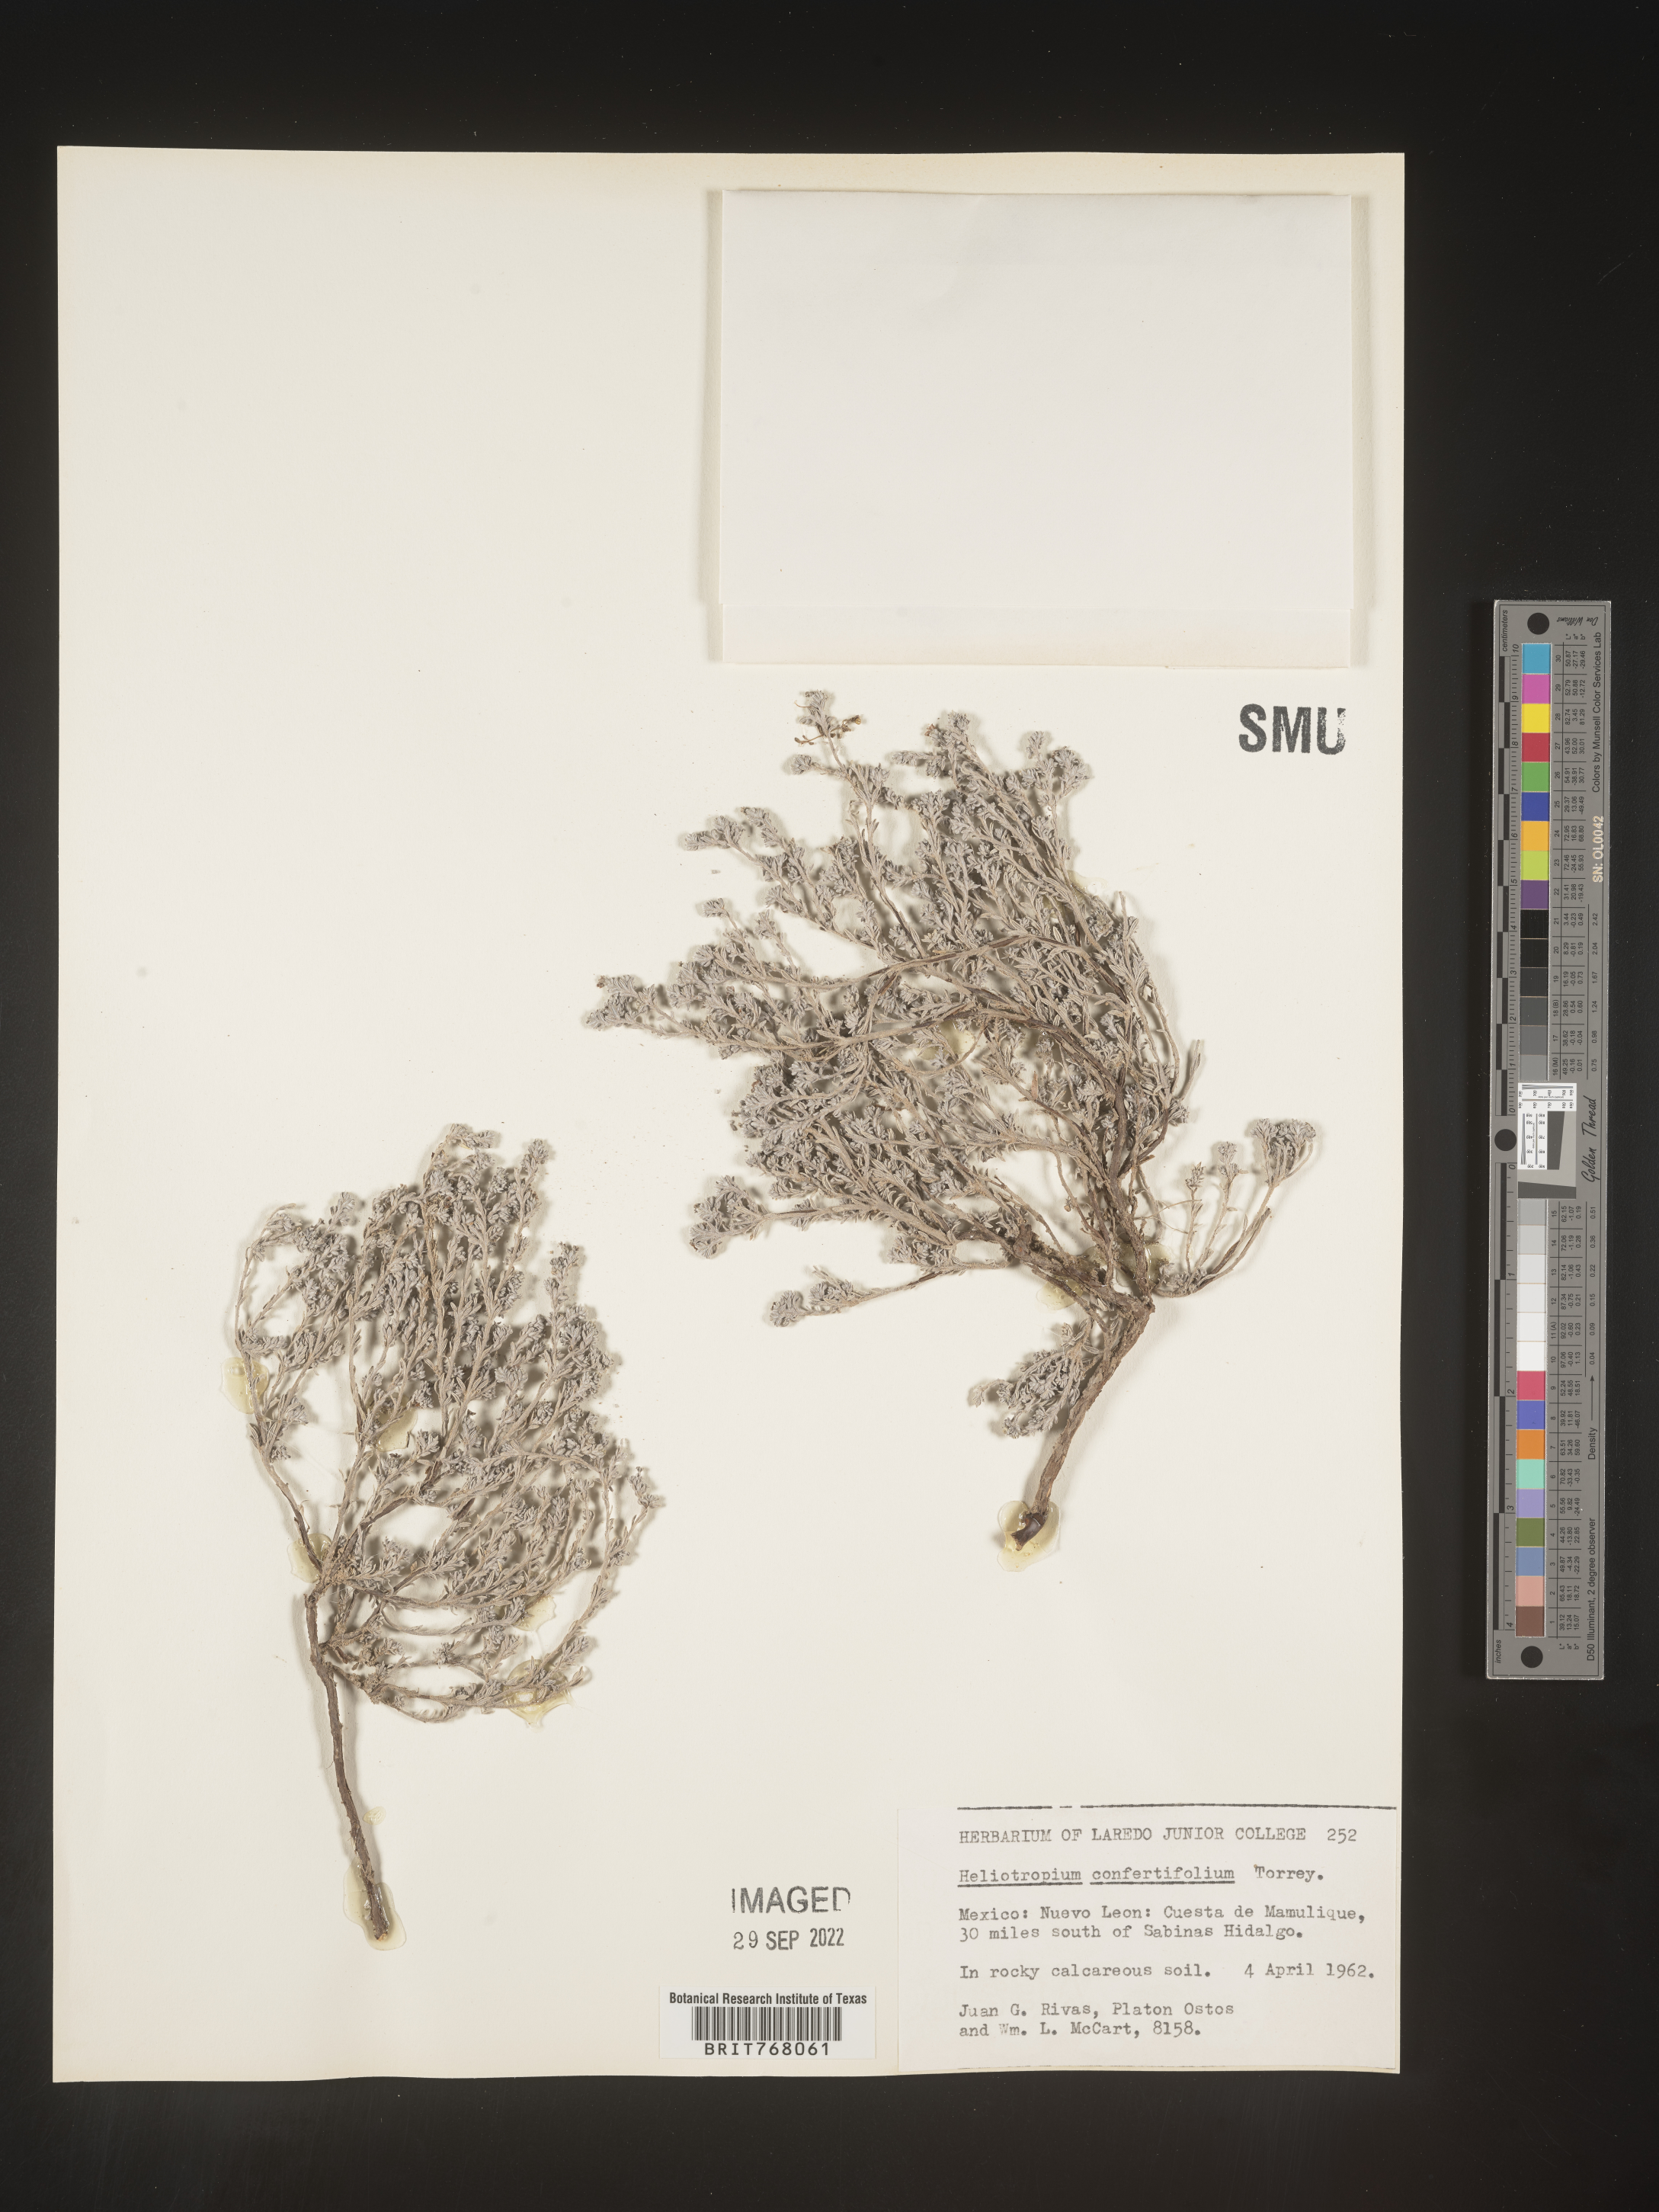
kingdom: Plantae
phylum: Tracheophyta
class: Magnoliopsida
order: Boraginales
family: Heliotropiaceae
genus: Heliotropium
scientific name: Heliotropium
